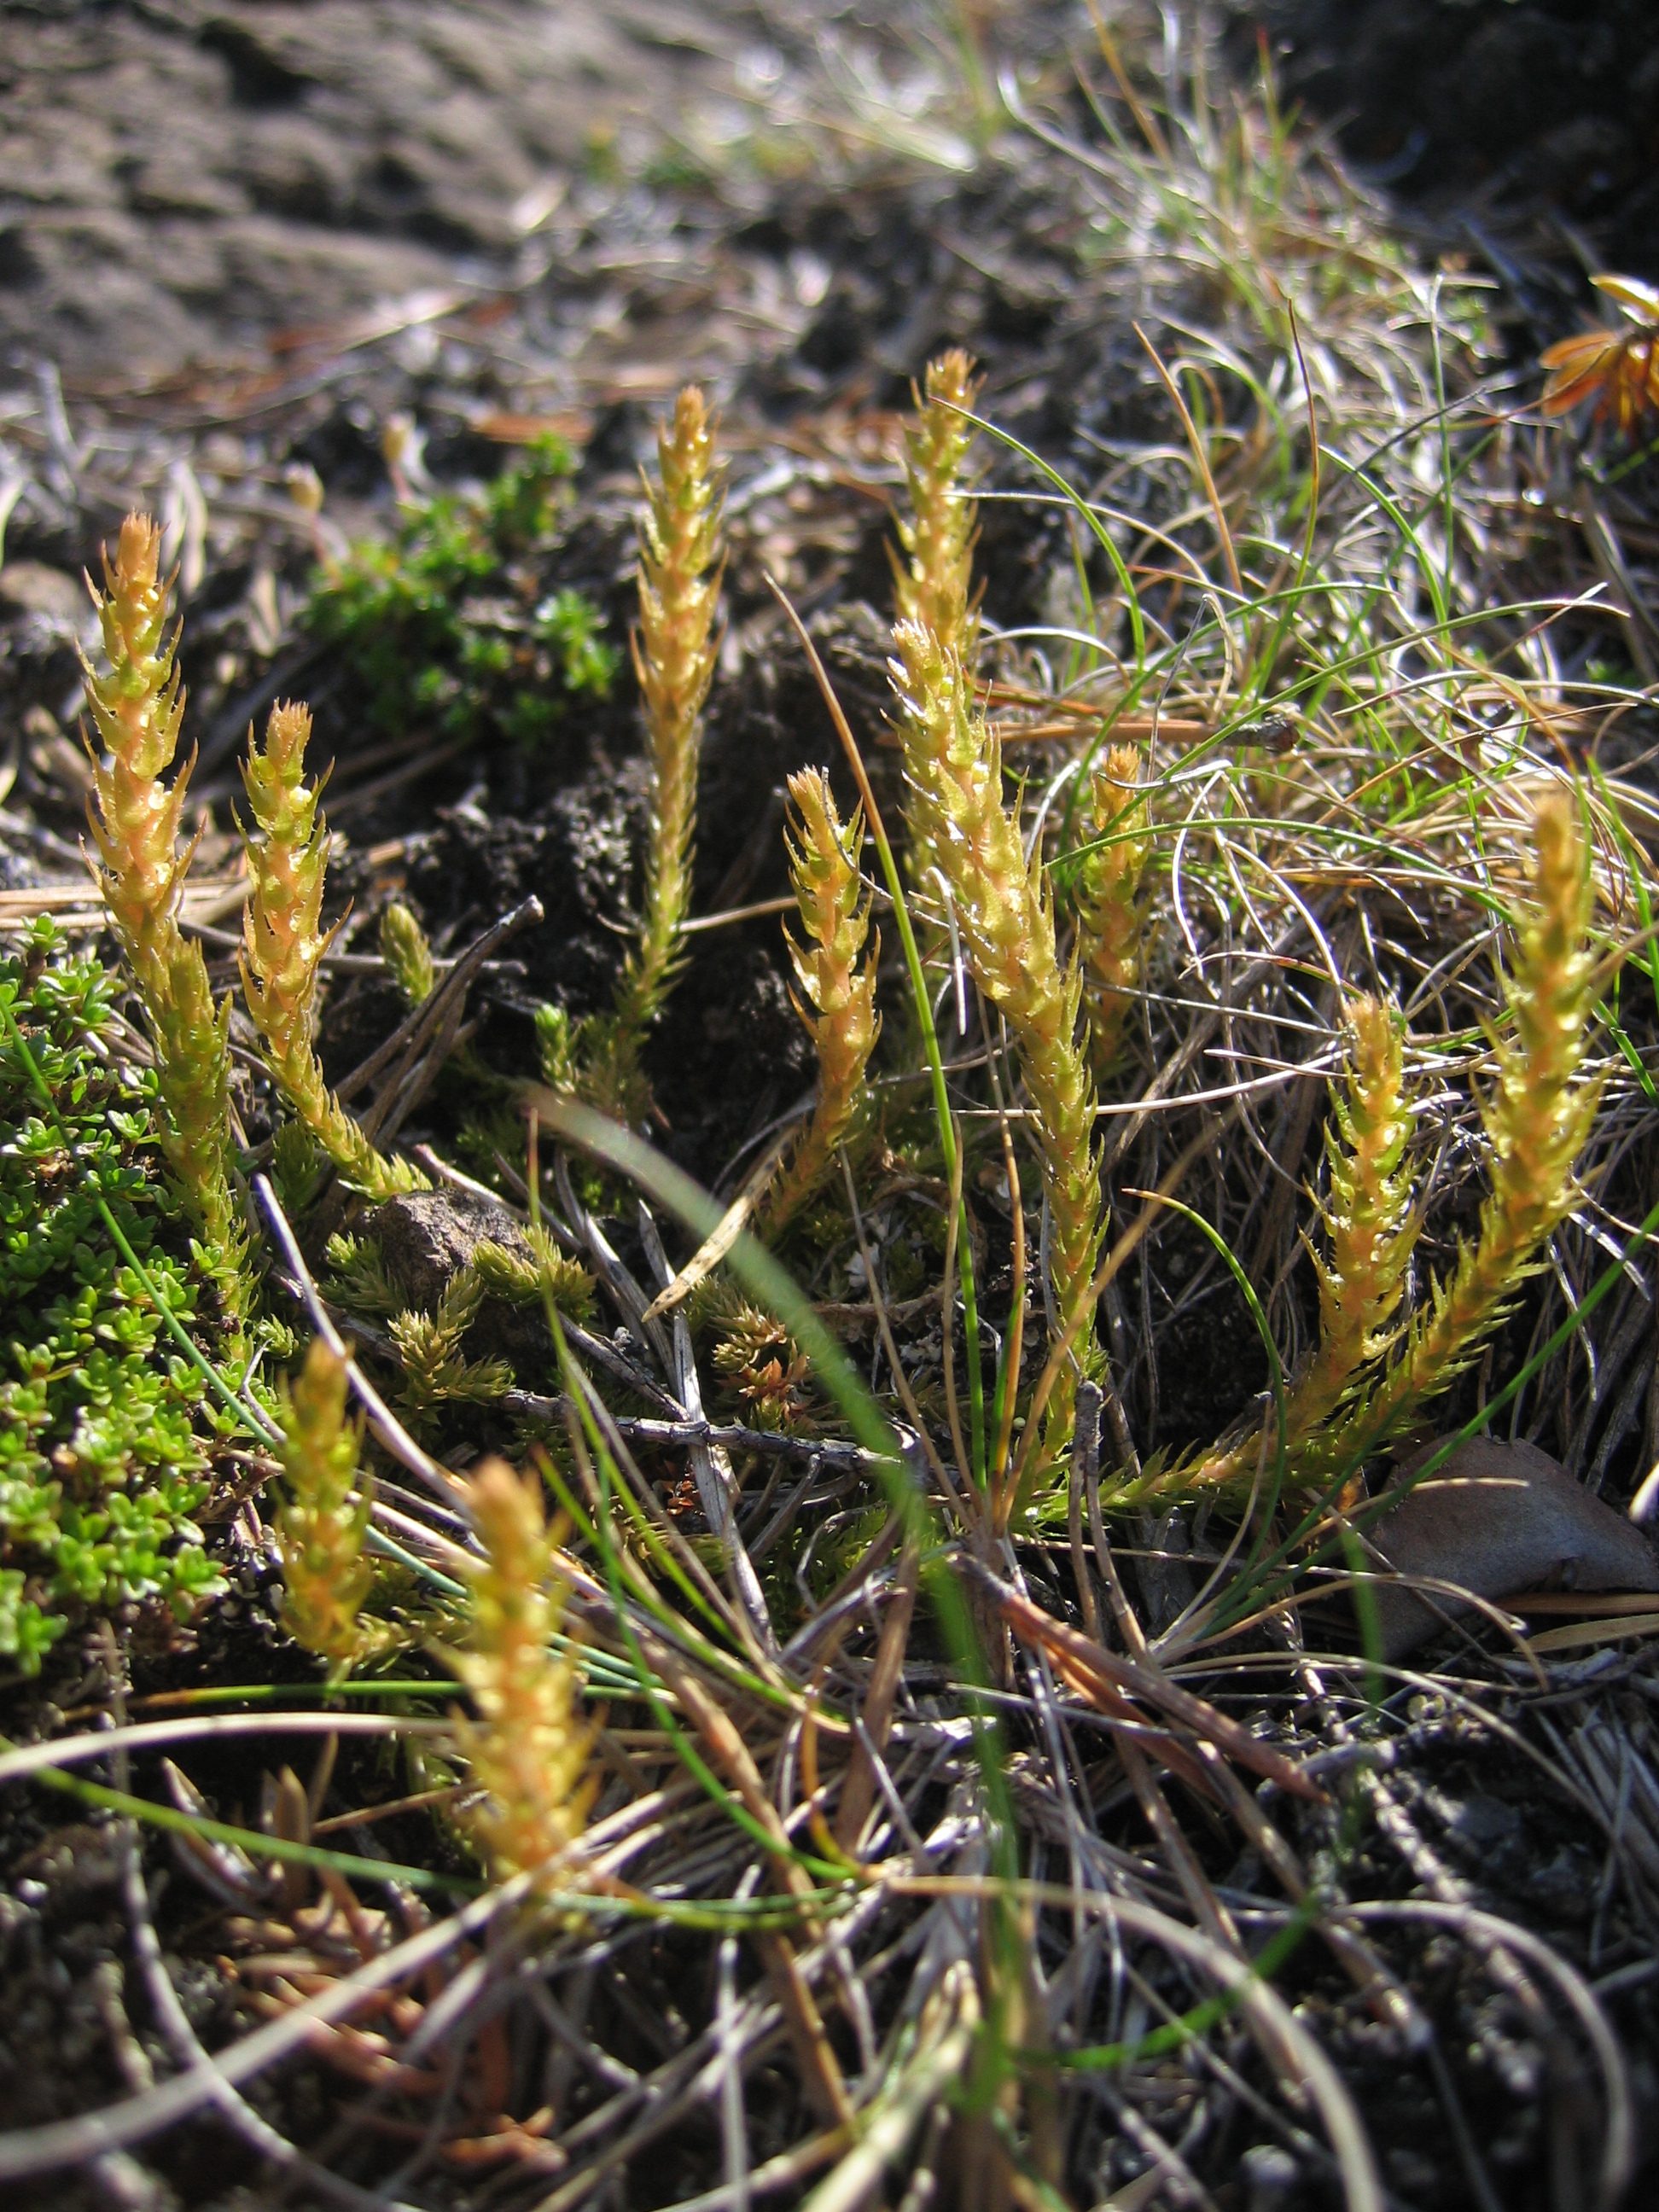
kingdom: Plantae
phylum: Tracheophyta
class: Lycopodiopsida
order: Selaginellales
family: Selaginellaceae
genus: Selaginella
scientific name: Selaginella selaginoides
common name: Prickly mountain-moss
